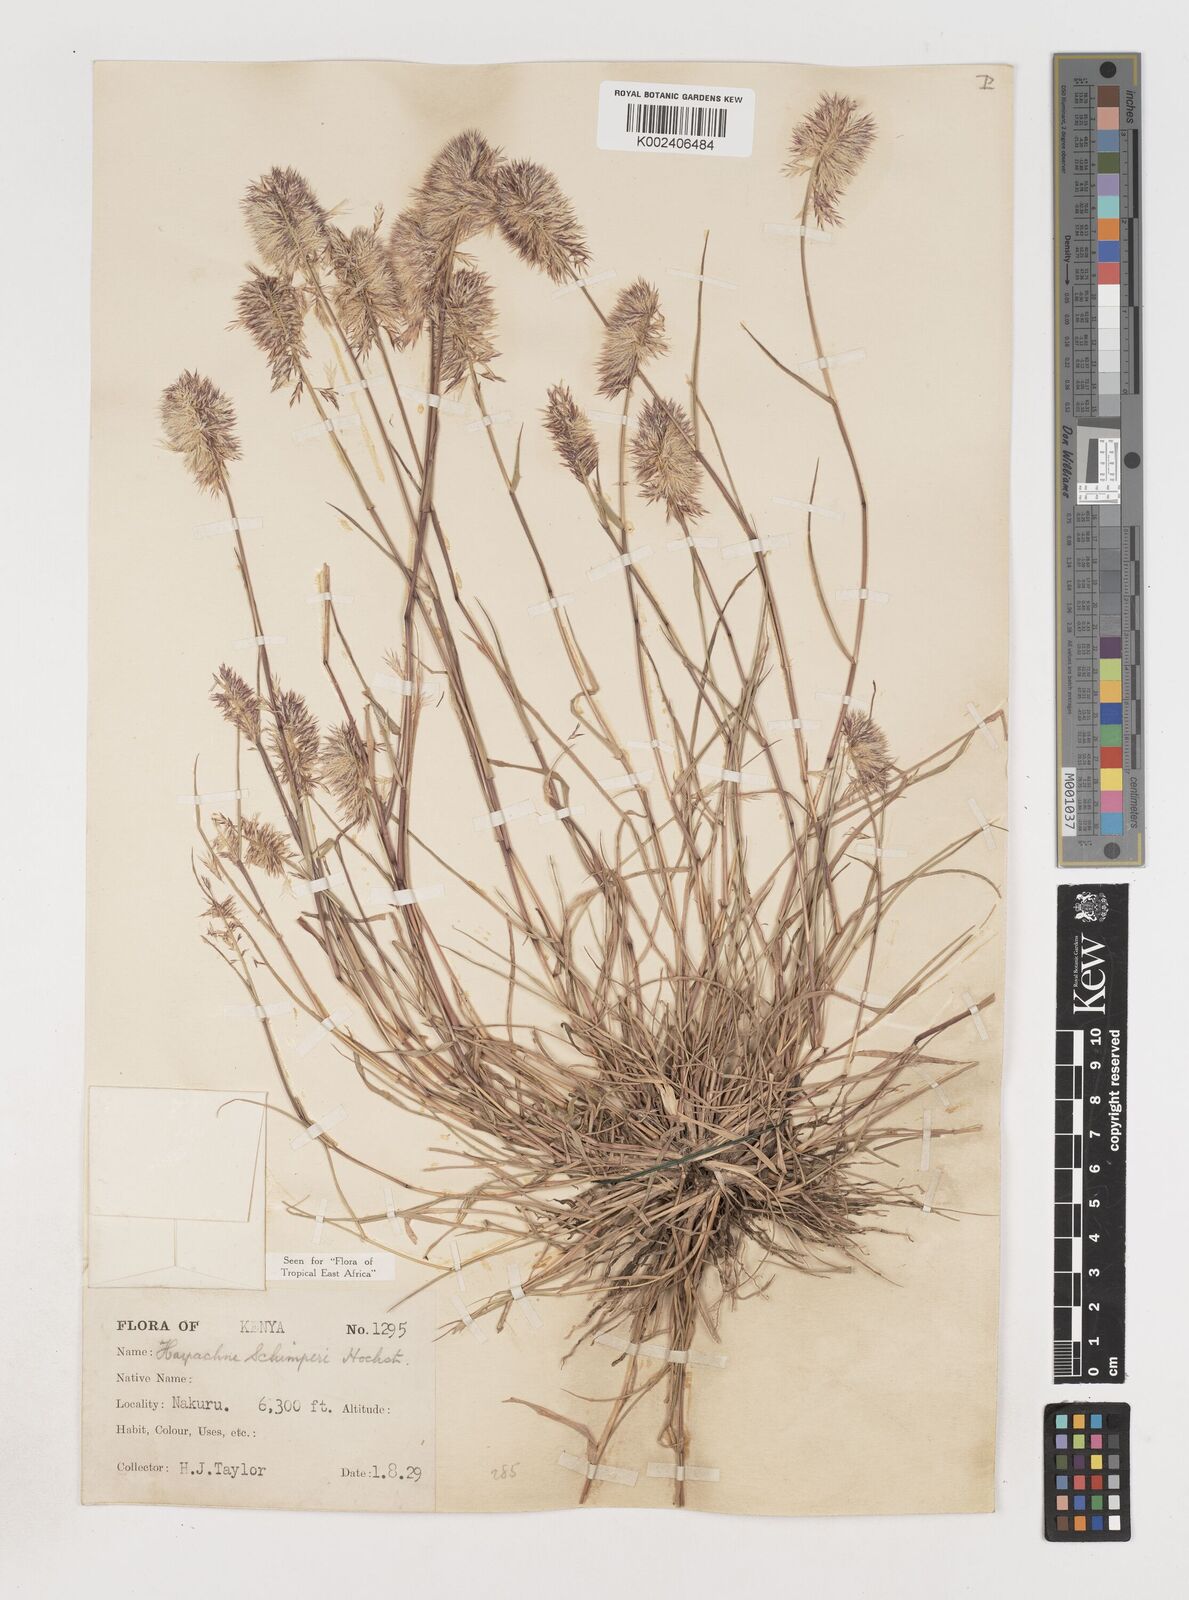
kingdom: Plantae
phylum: Tracheophyta
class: Liliopsida
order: Poales
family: Poaceae
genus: Harpachne
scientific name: Harpachne schimperi
